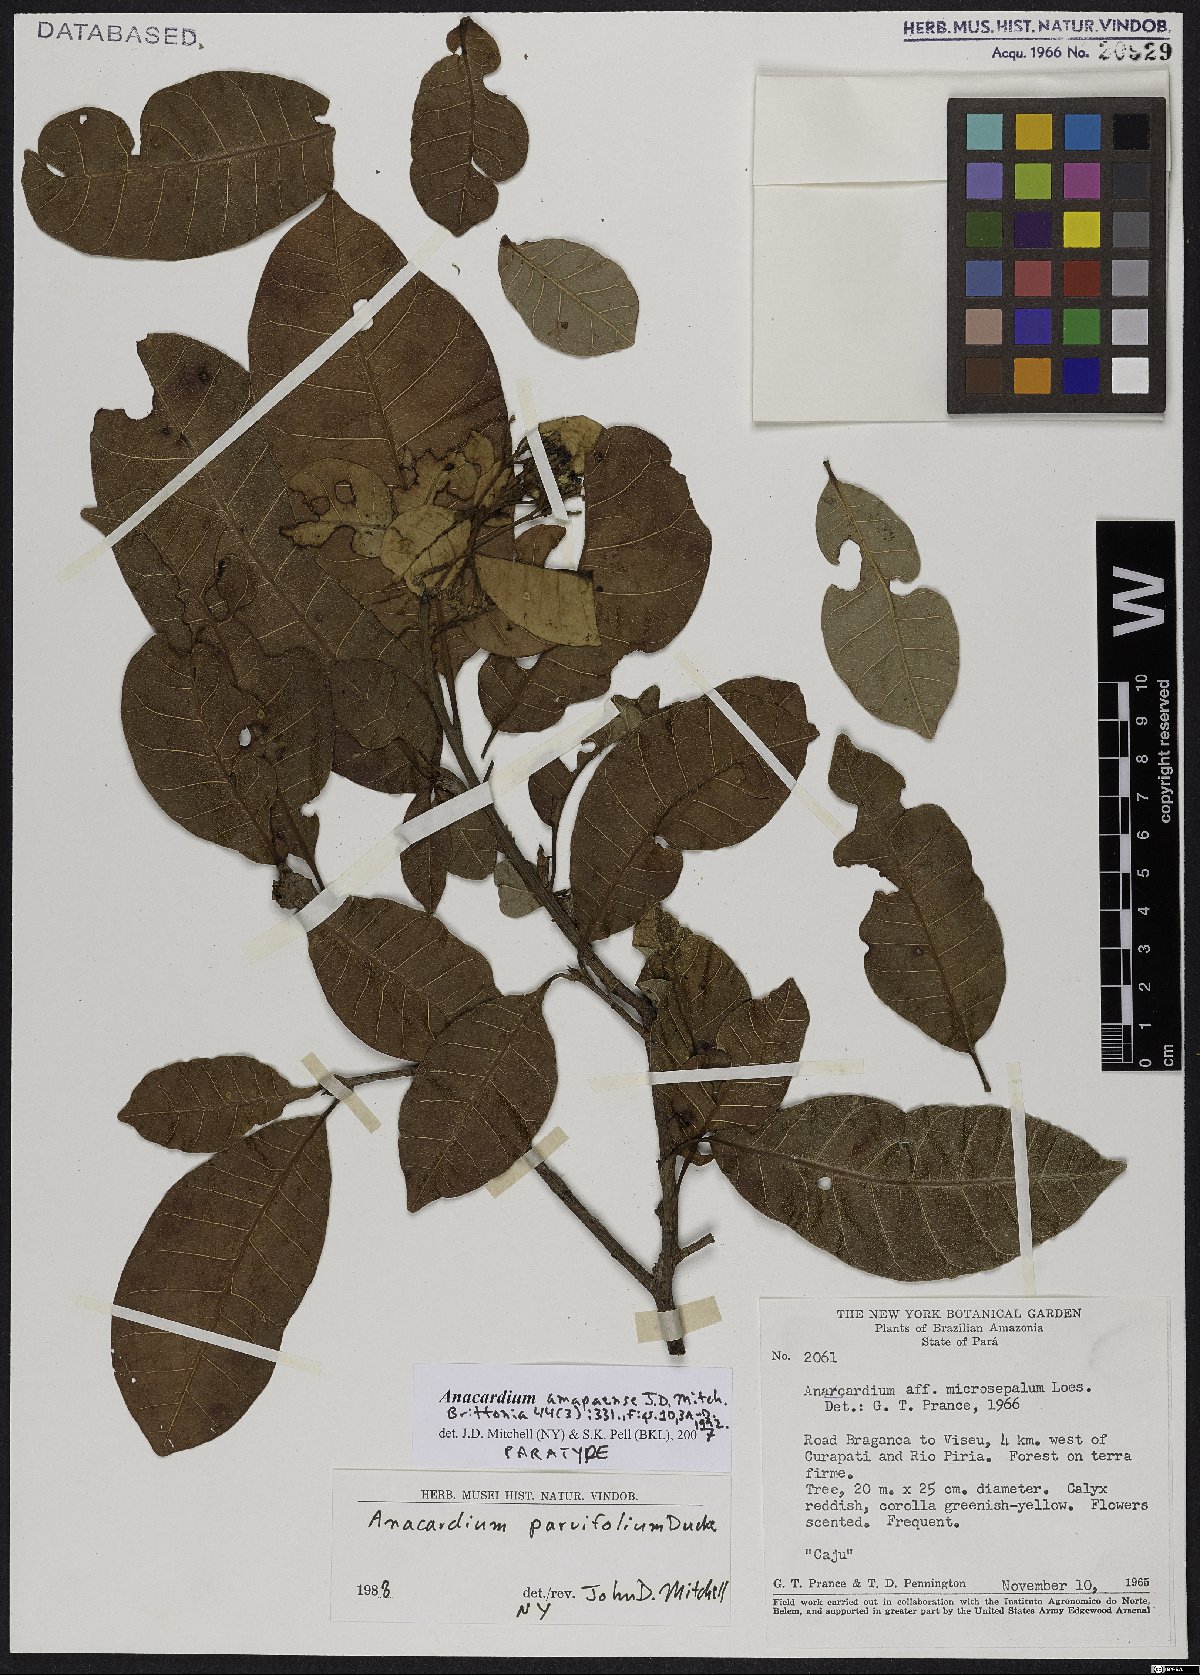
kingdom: Plantae
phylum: Tracheophyta
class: Magnoliopsida
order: Sapindales
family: Anacardiaceae
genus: Anacardium
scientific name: Anacardium amapaense
